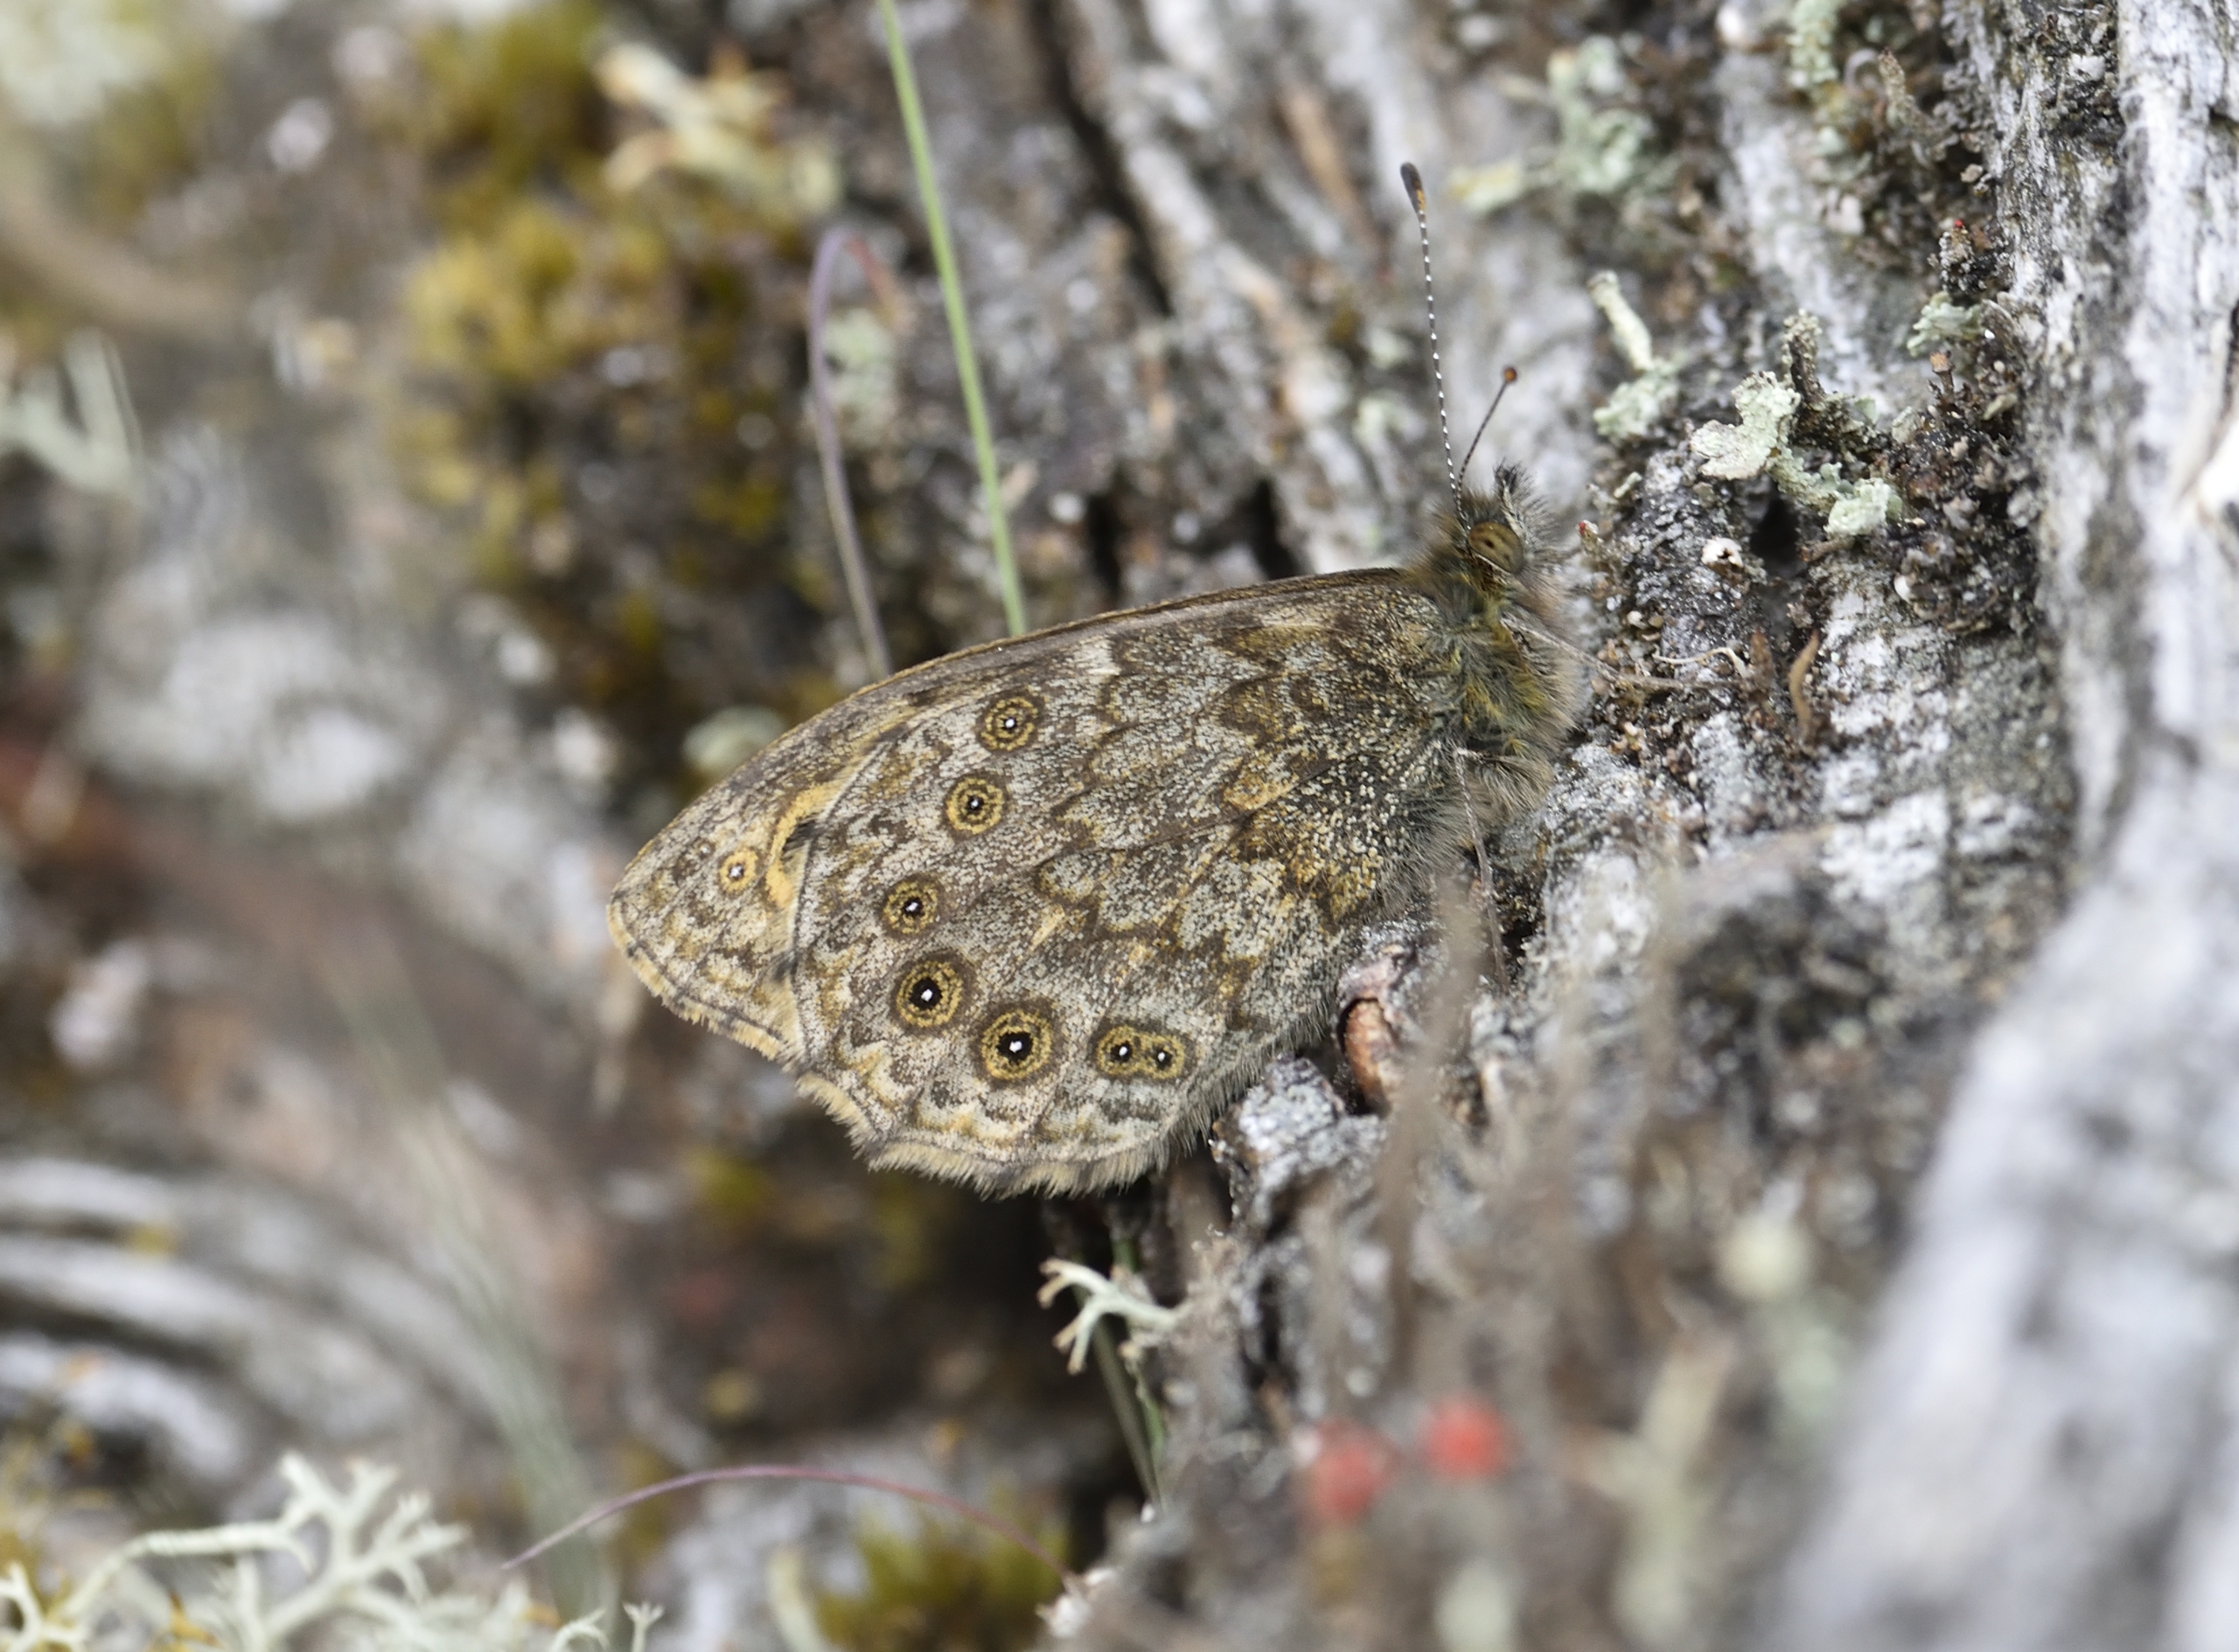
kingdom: Animalia
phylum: Arthropoda
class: Insecta
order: Lepidoptera
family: Nymphalidae
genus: Pararge
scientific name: Pararge Lasiommata megera
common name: Vejrandøje
